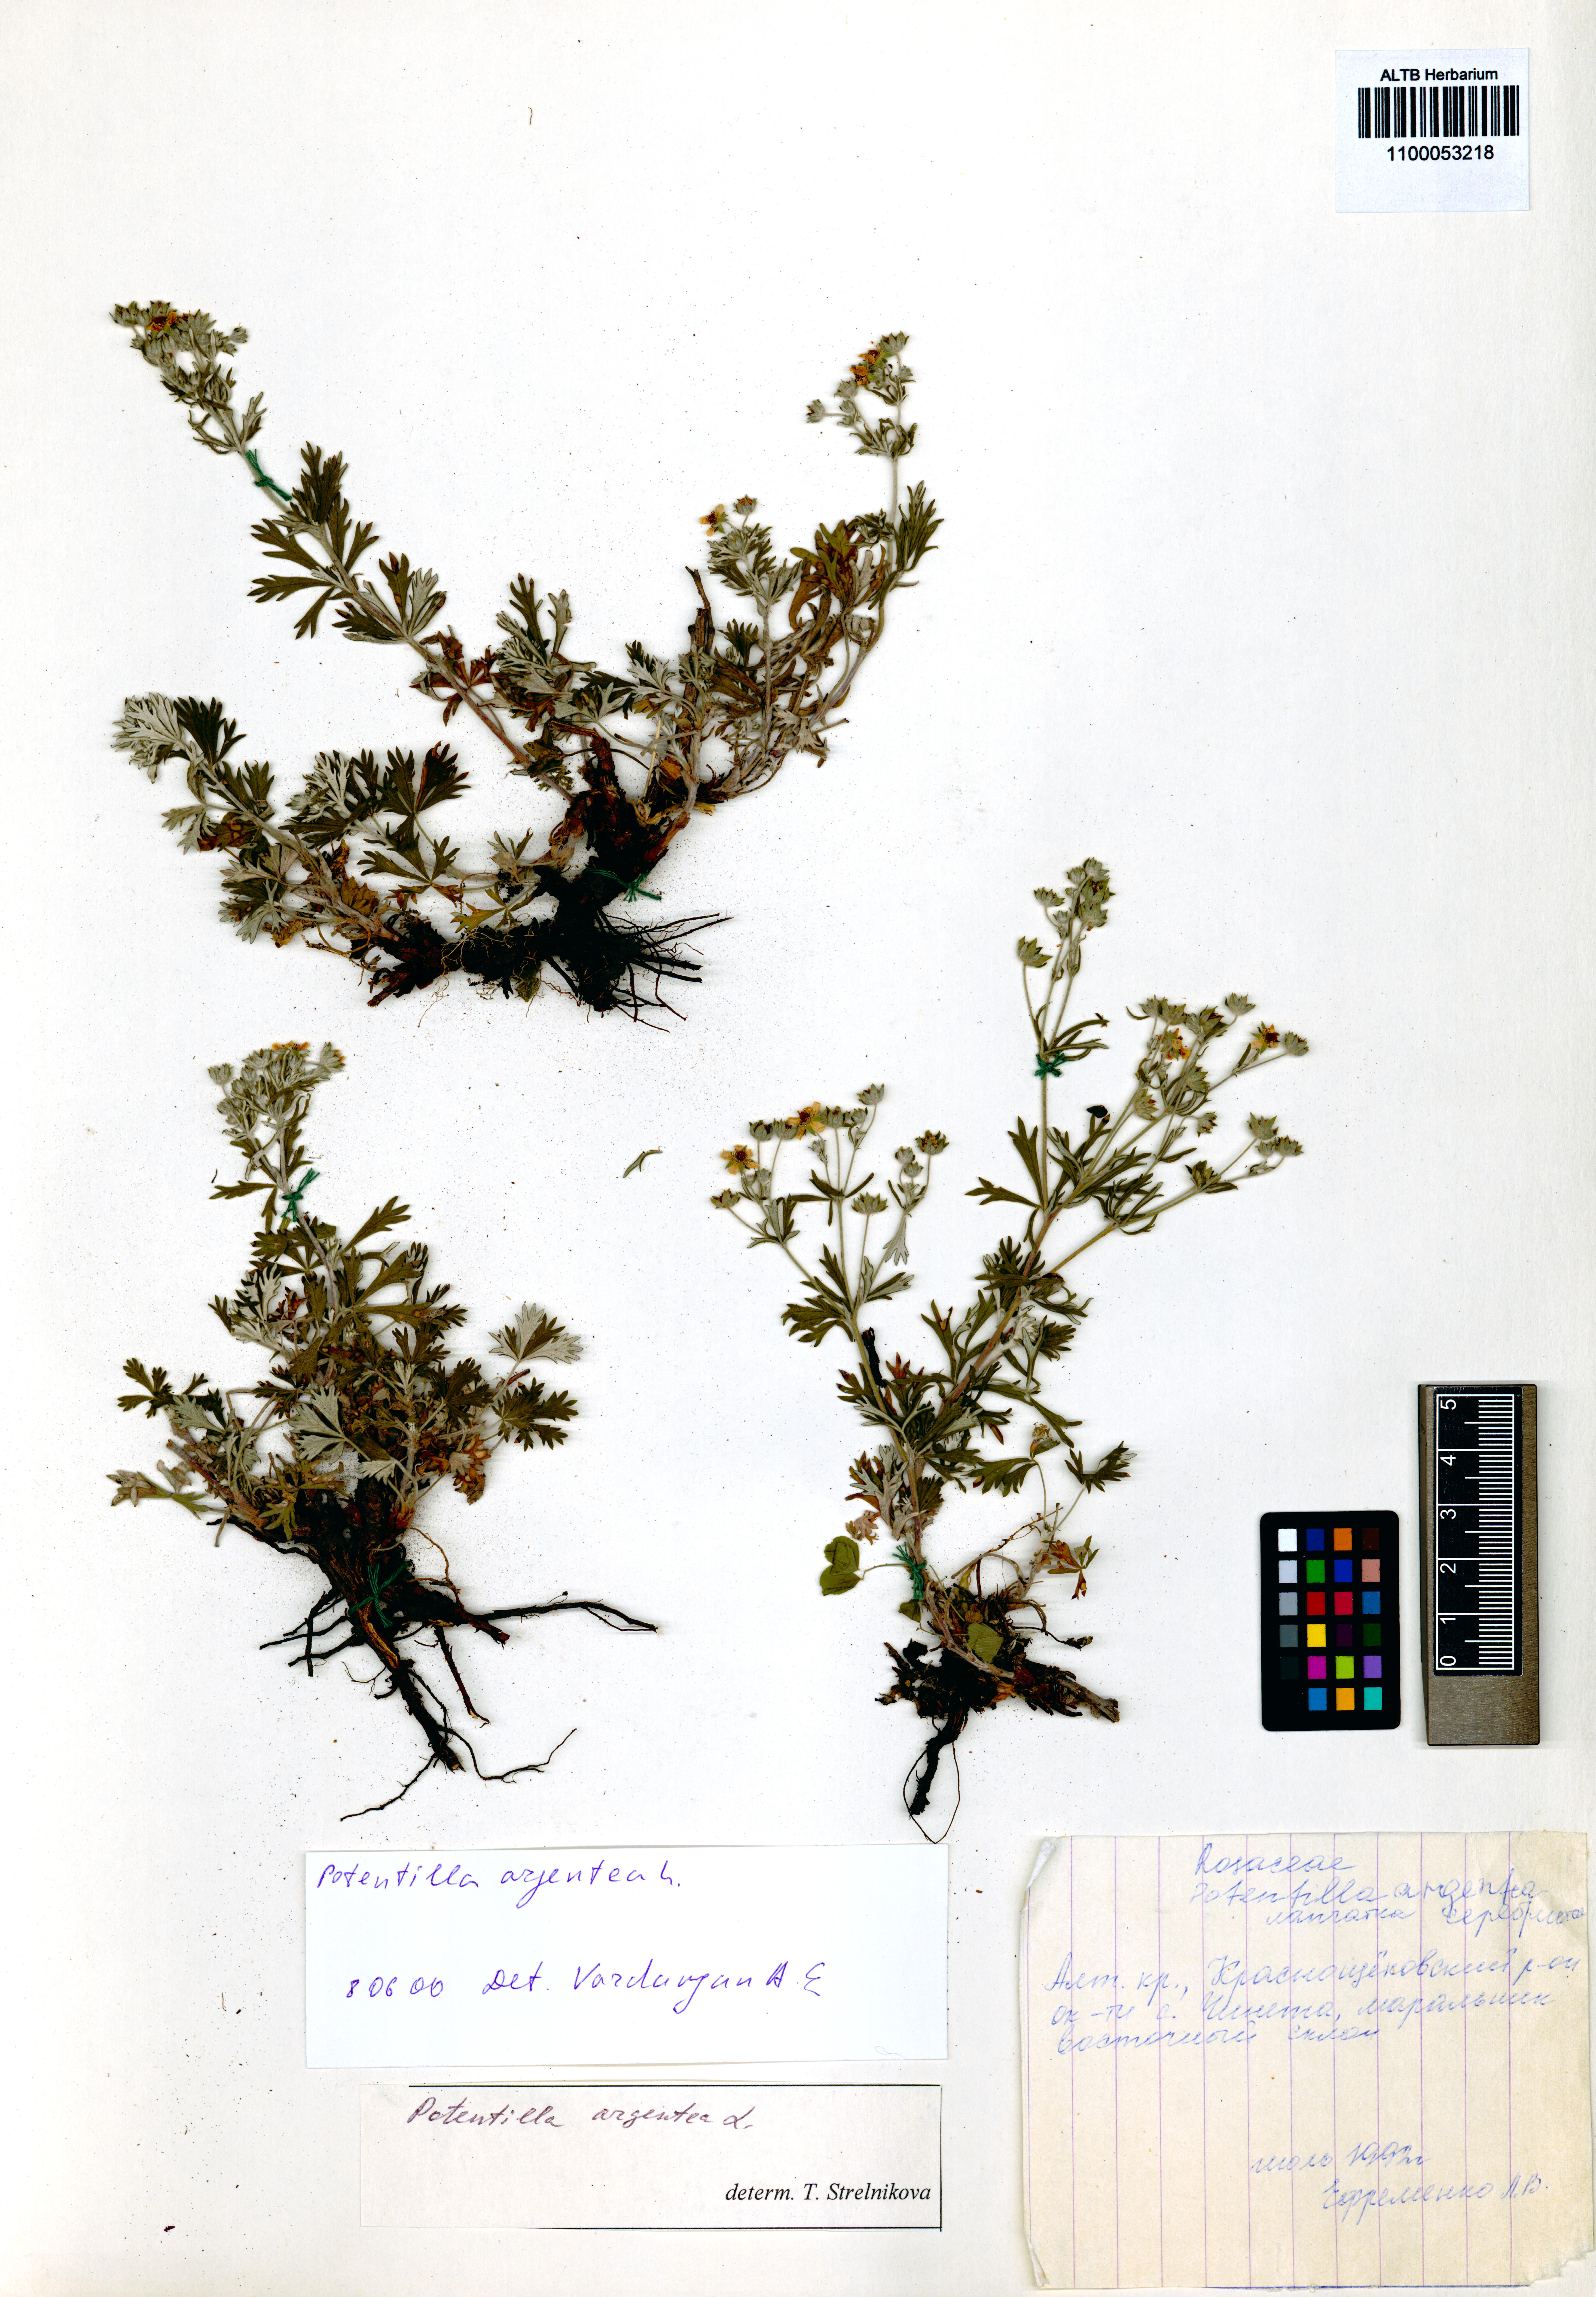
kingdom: Plantae
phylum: Tracheophyta
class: Magnoliopsida
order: Rosales
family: Rosaceae
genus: Potentilla
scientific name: Potentilla argentea
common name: Hoary cinquefoil
